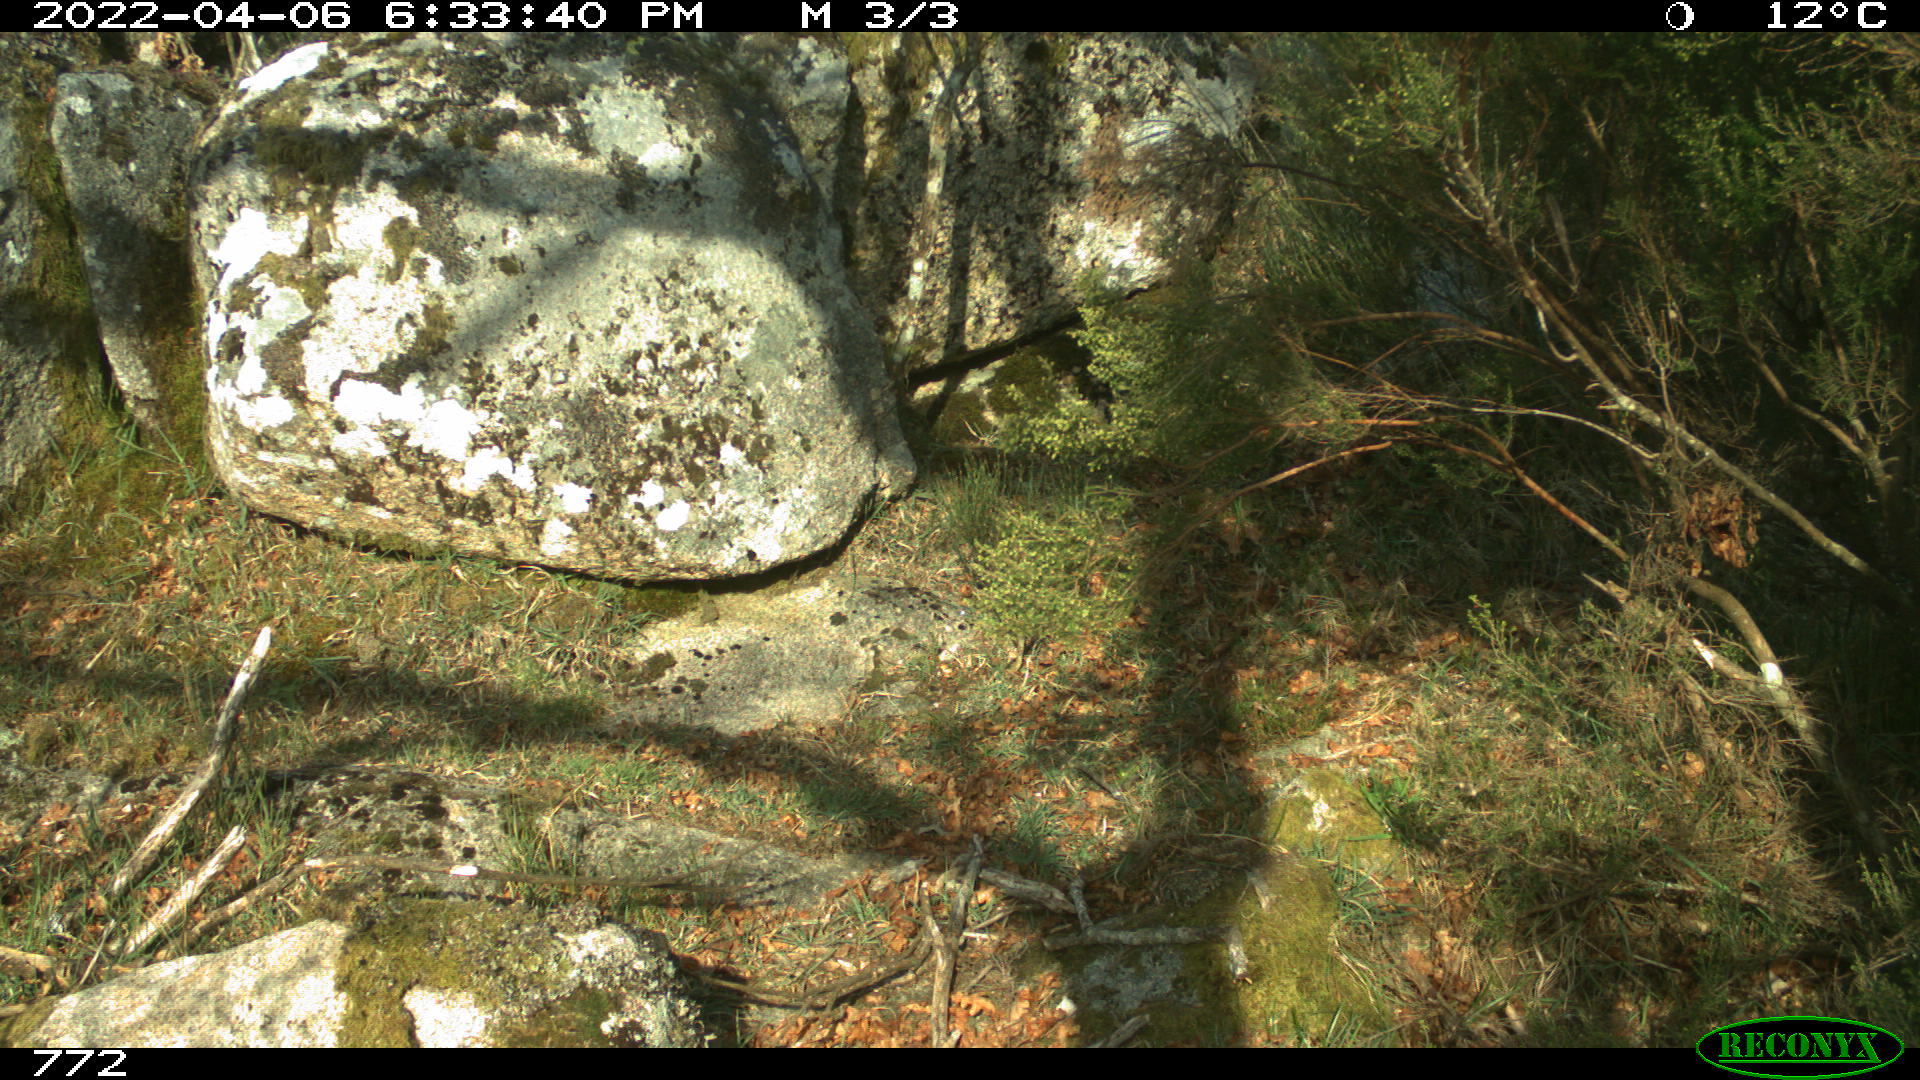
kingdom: Animalia
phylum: Chordata
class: Mammalia
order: Artiodactyla
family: Suidae
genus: Sus
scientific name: Sus scrofa
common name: Wild boar
